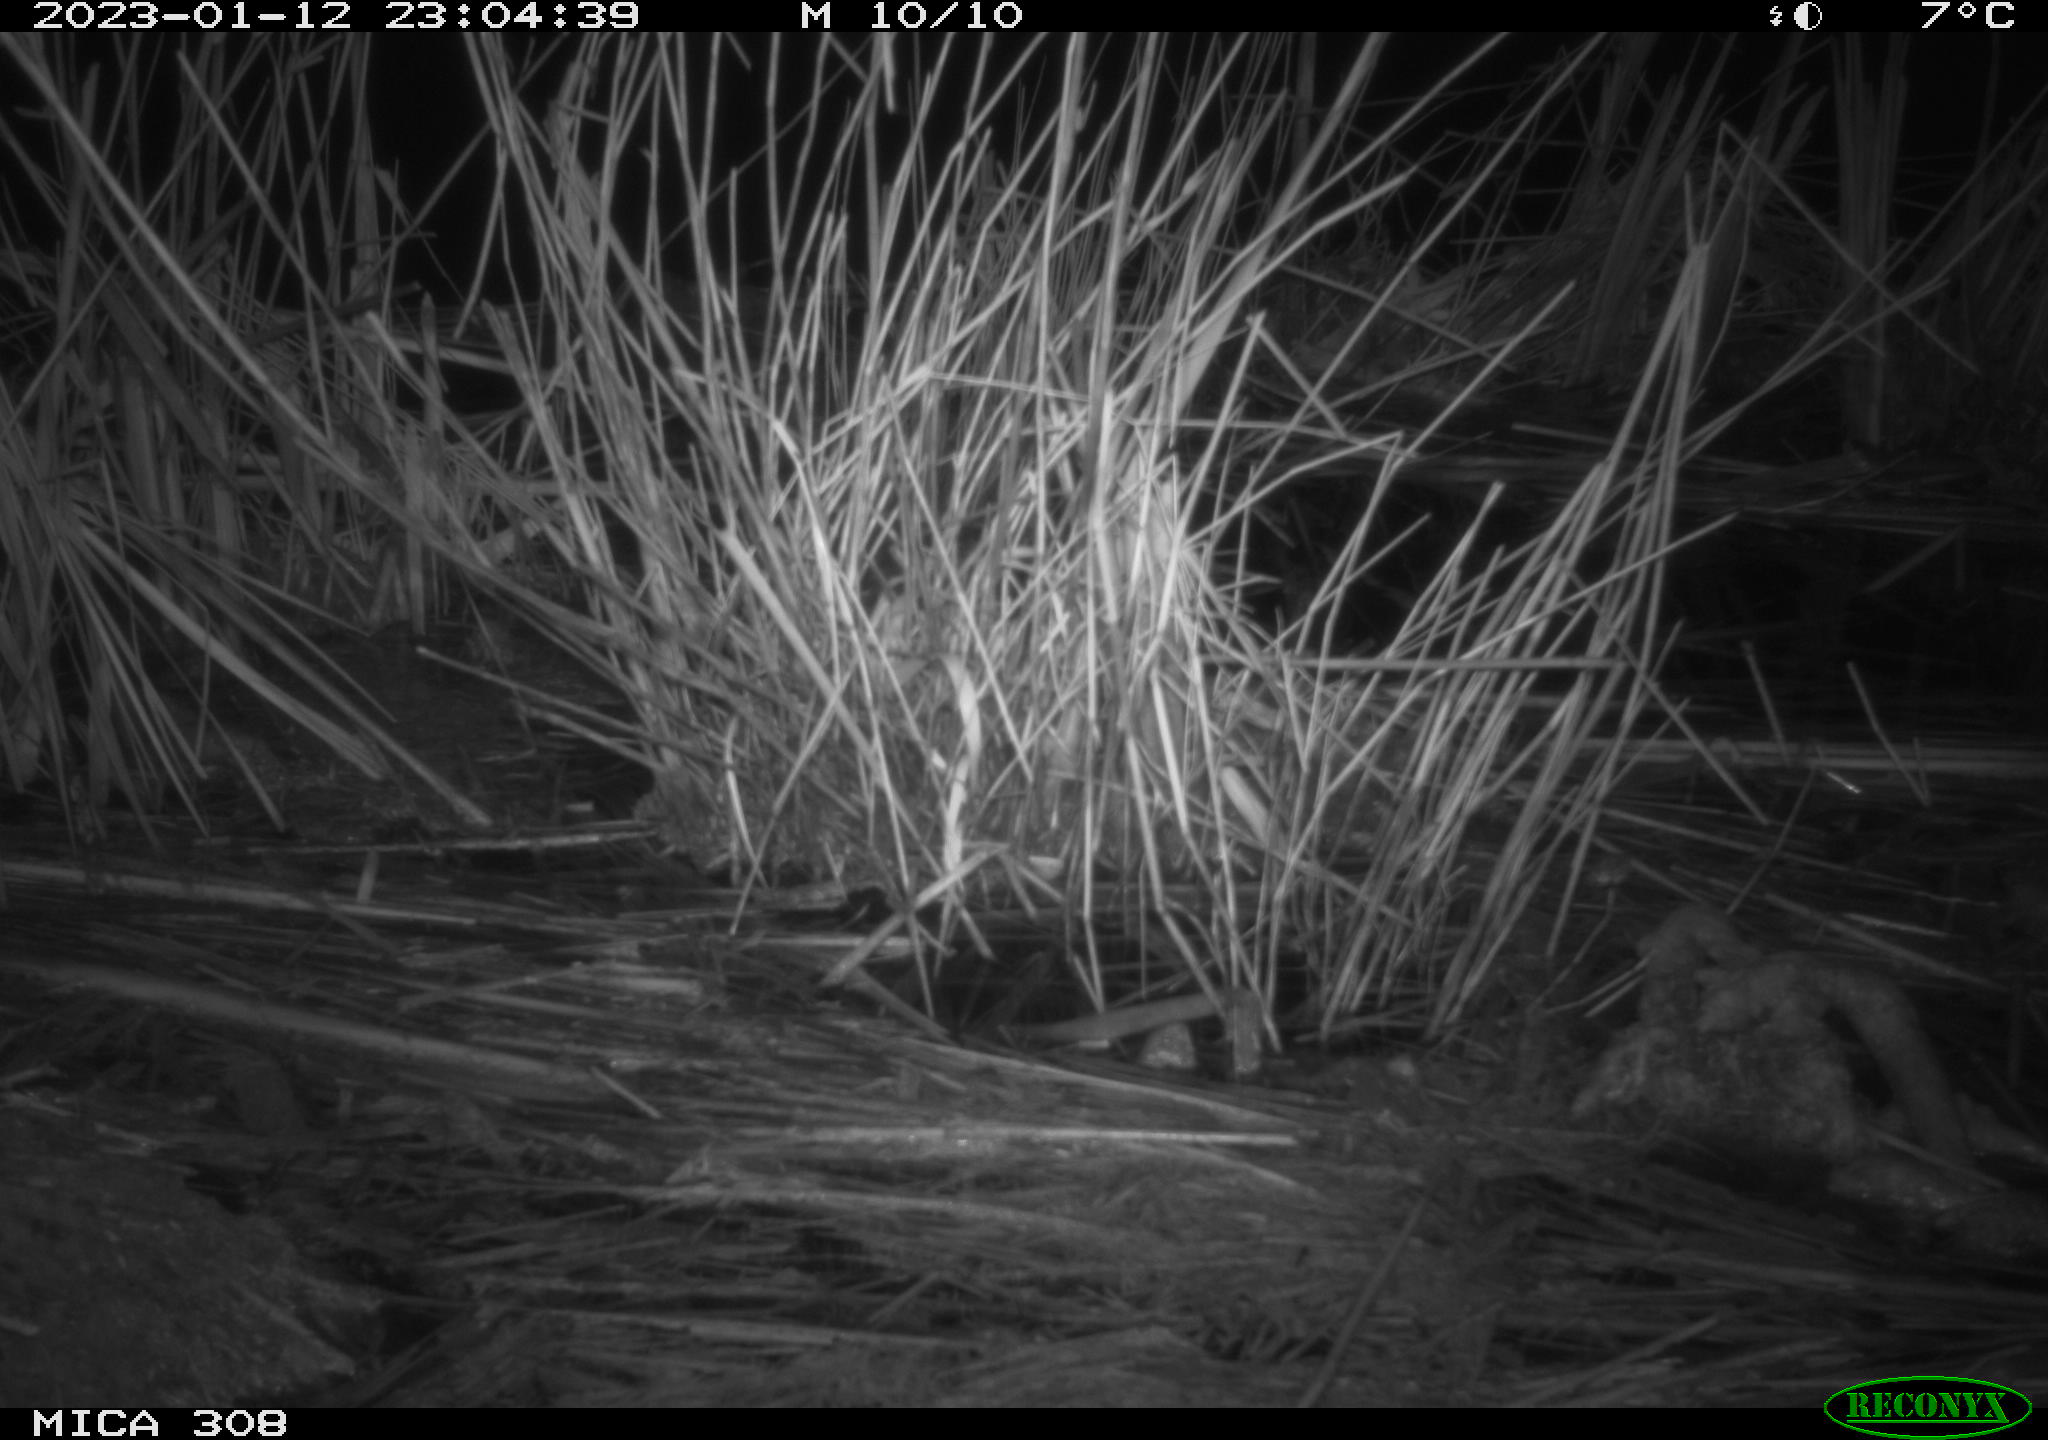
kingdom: Animalia
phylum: Chordata
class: Mammalia
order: Rodentia
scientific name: Rodentia
